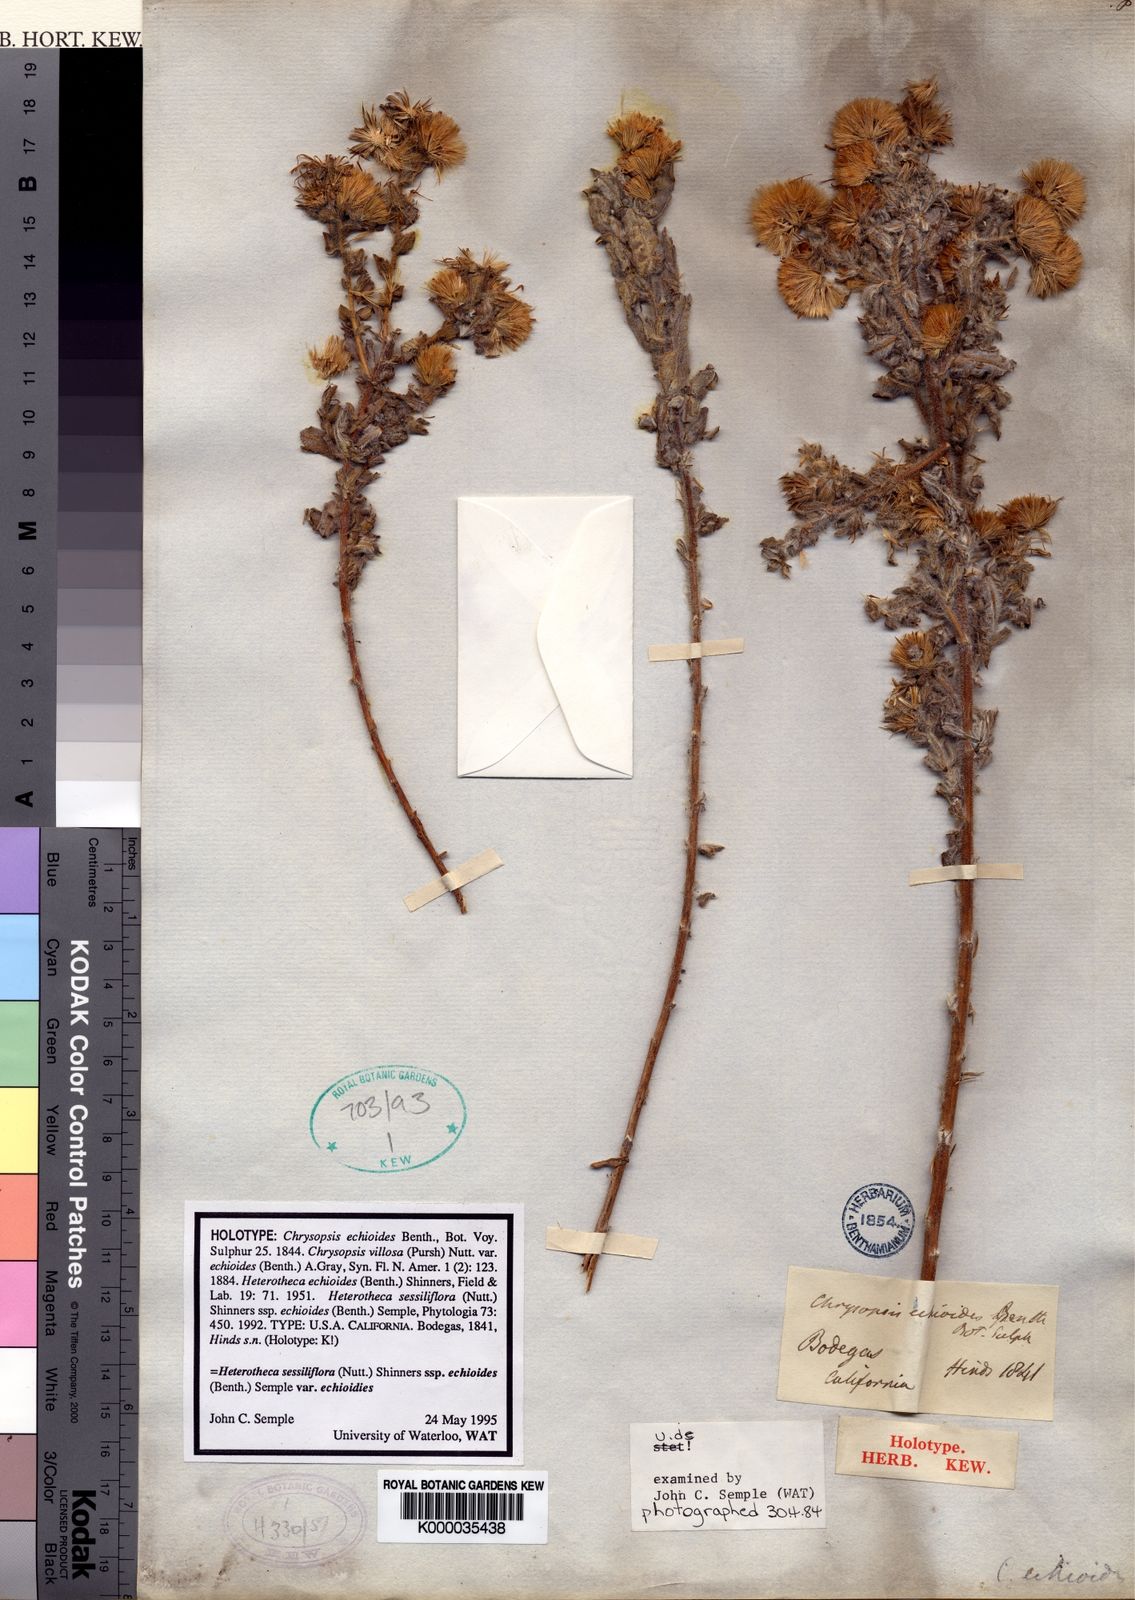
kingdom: Plantae
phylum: Tracheophyta
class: Magnoliopsida
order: Asterales
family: Asteraceae
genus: Heterotheca
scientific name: Heterotheca sessiliflora
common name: Sessile-flower golden-aster
